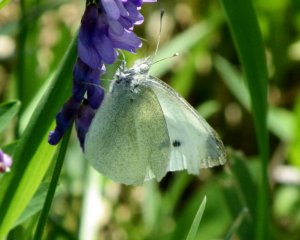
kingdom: Animalia
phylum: Arthropoda
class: Insecta
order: Lepidoptera
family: Pieridae
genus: Pieris
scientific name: Pieris rapae
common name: Cabbage White
